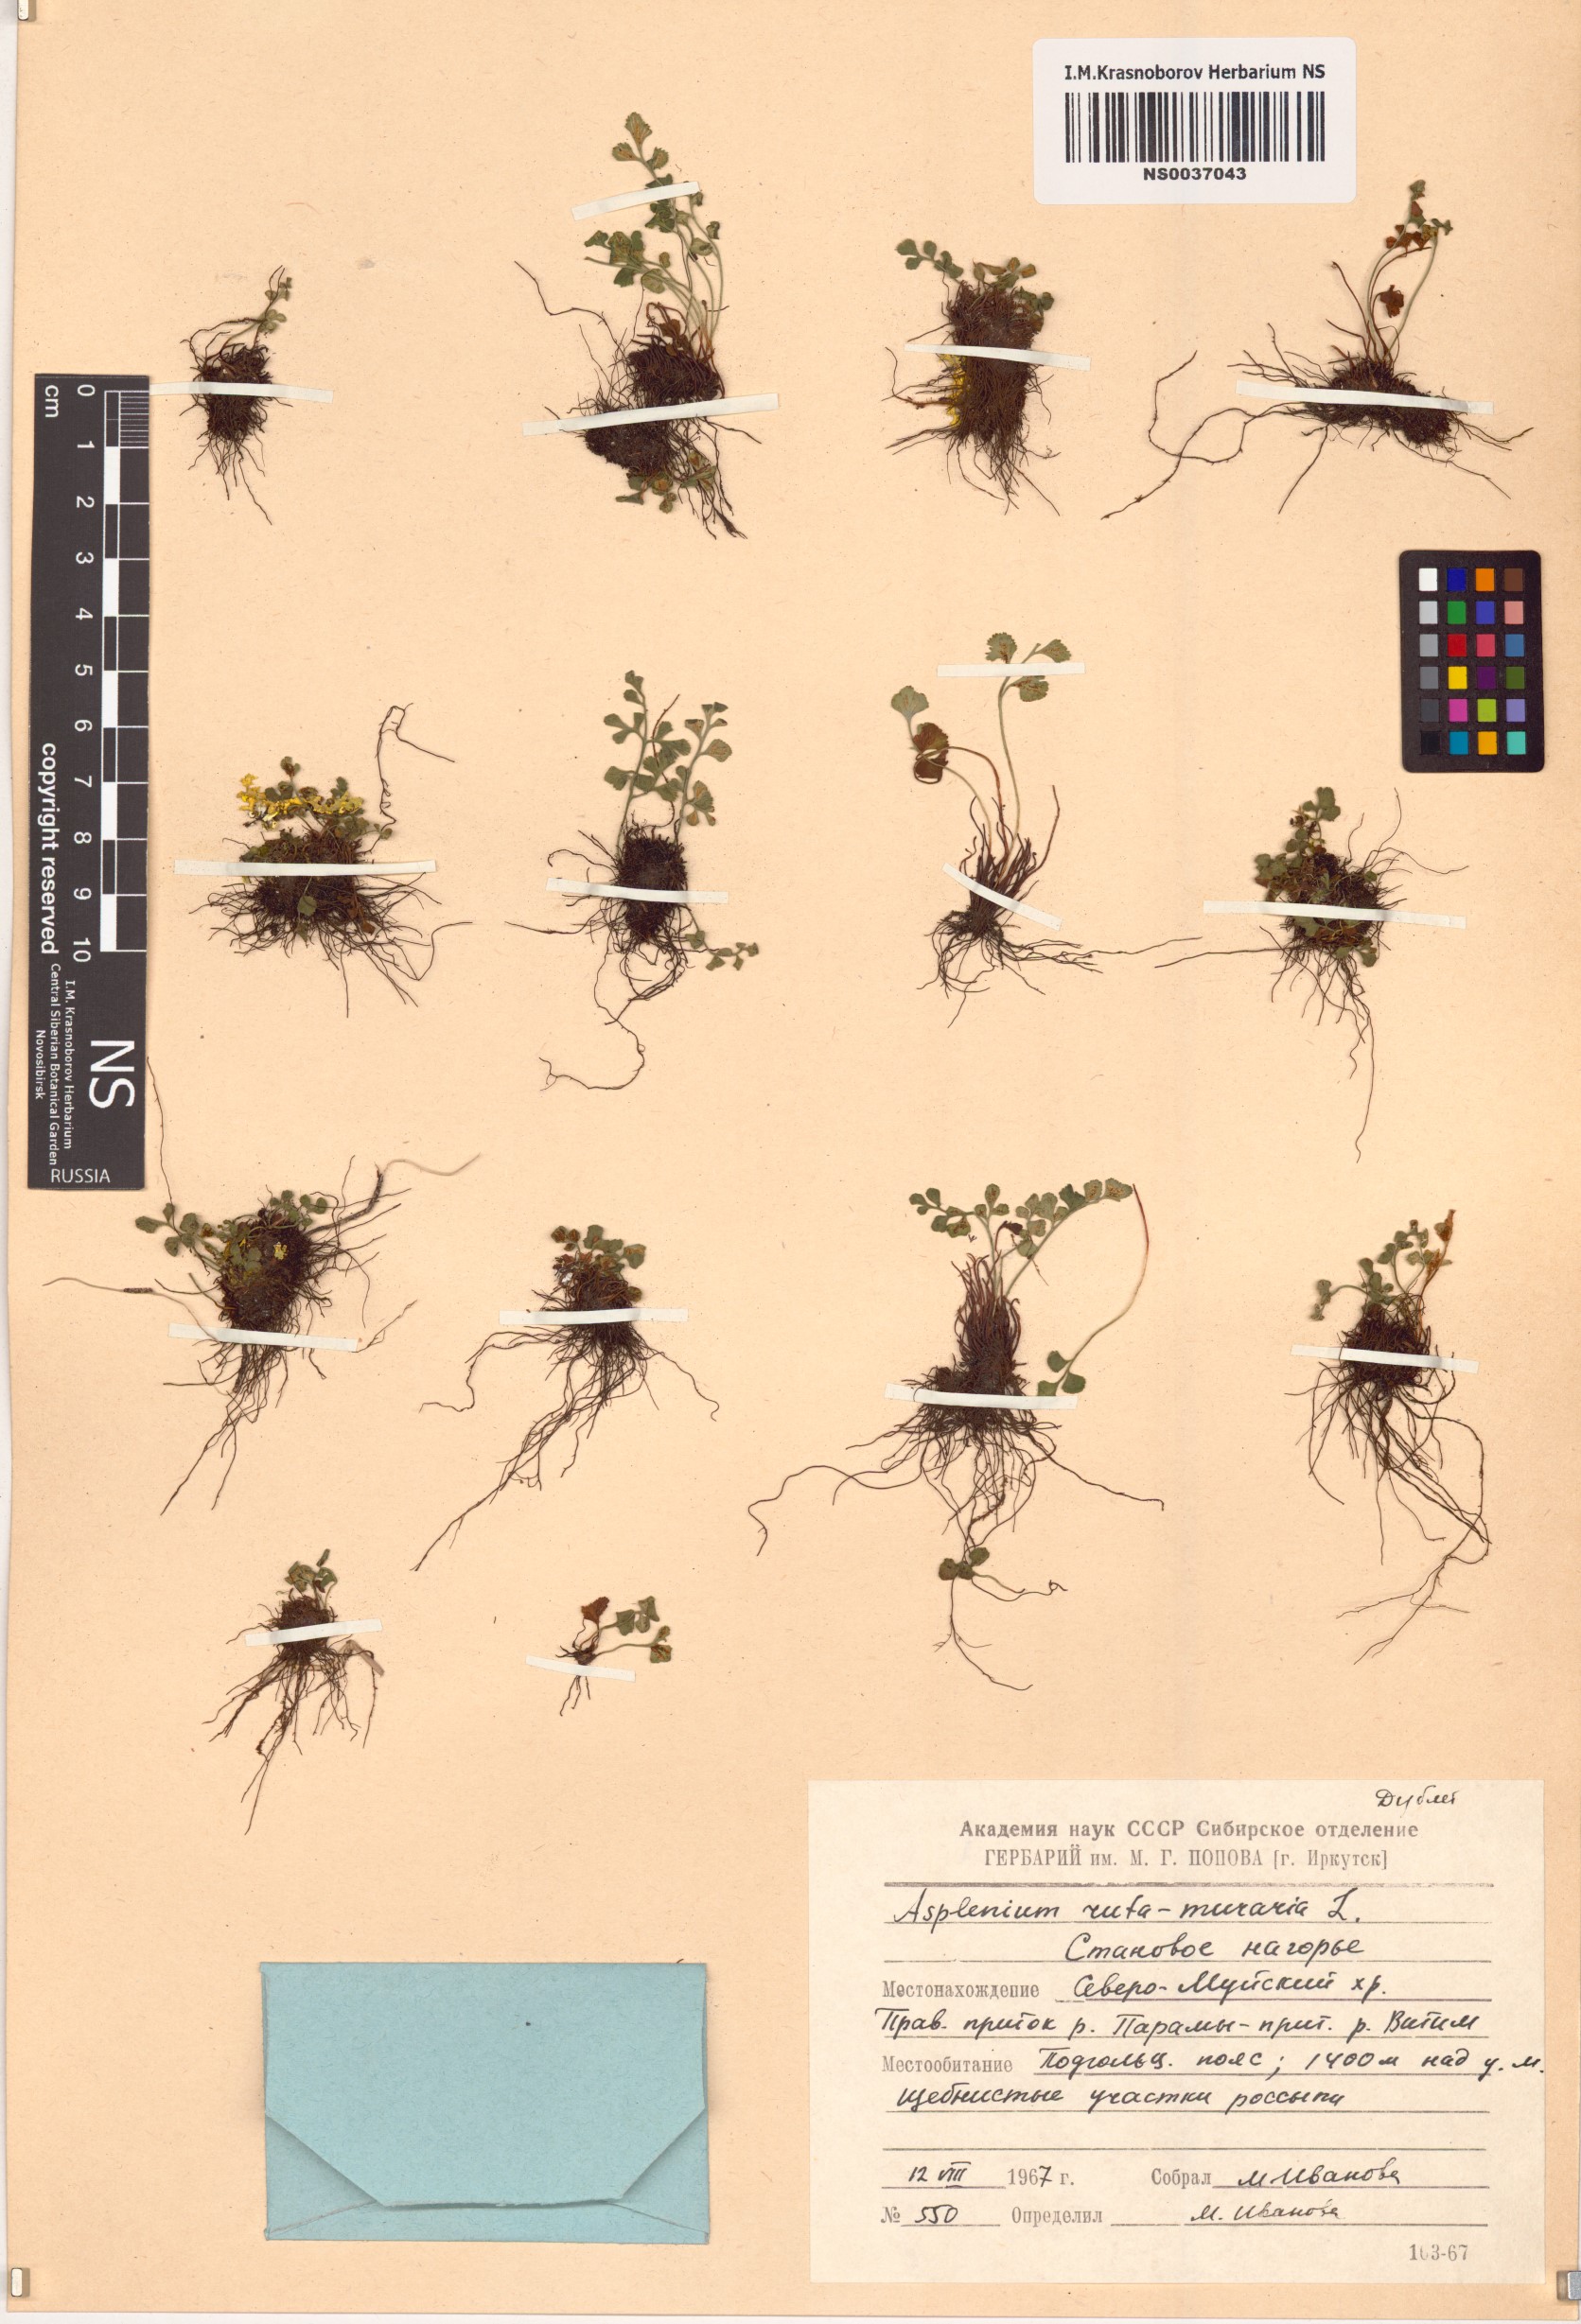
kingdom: Plantae
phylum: Tracheophyta
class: Polypodiopsida
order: Polypodiales
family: Aspleniaceae
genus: Asplenium
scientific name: Asplenium ruta-muraria
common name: Wall-rue
